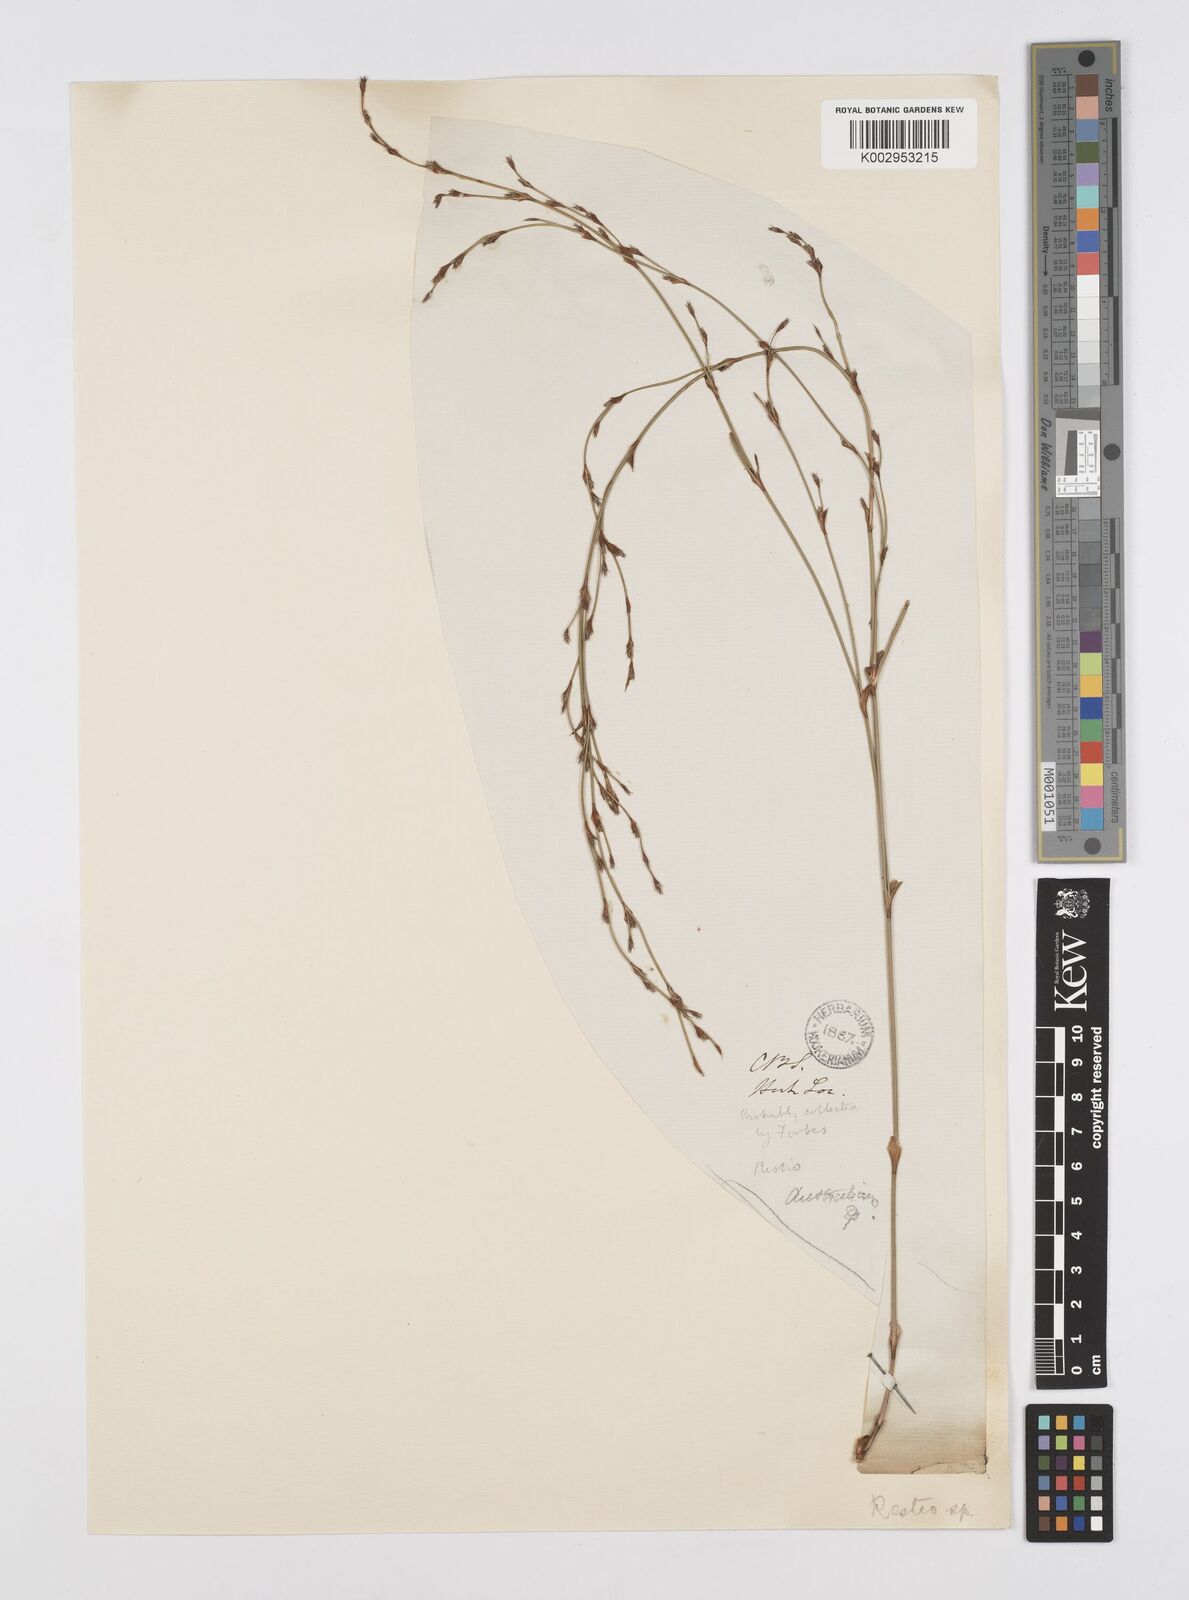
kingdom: Plantae
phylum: Tracheophyta
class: Liliopsida
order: Poales
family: Restionaceae
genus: Restio
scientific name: Restio
